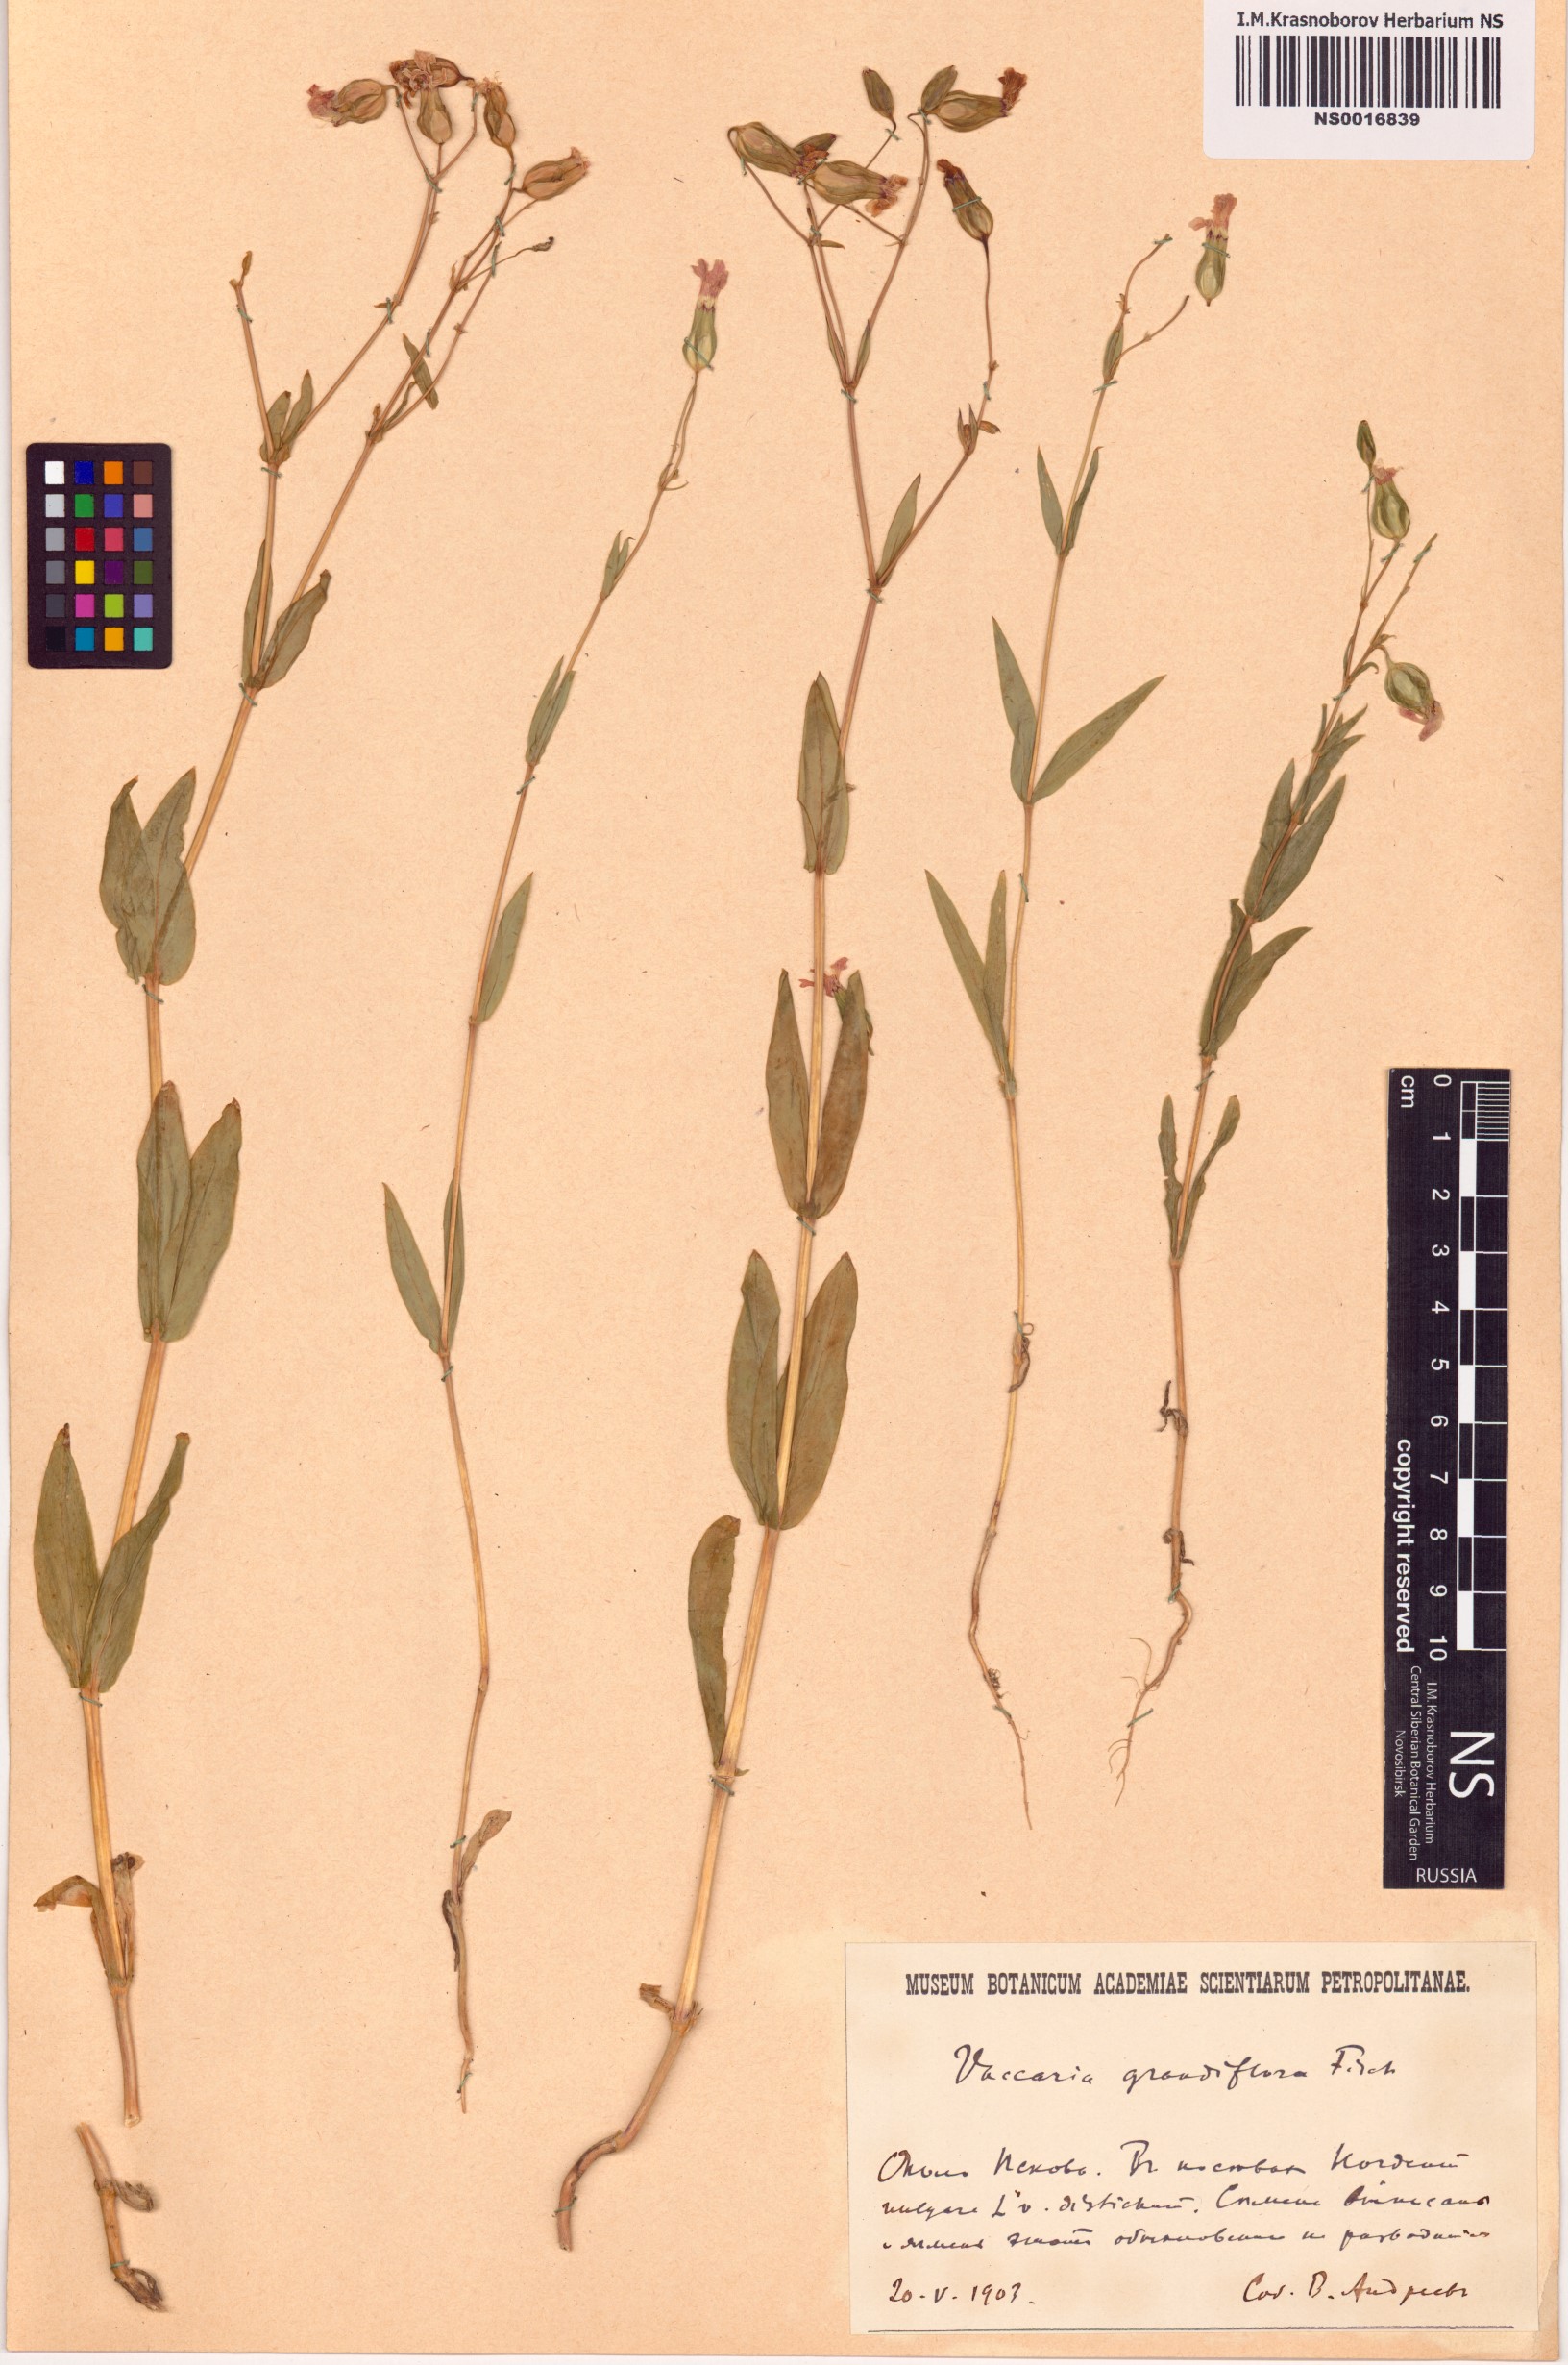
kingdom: Plantae
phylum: Tracheophyta
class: Magnoliopsida
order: Caryophyllales
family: Caryophyllaceae
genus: Gypsophila
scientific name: Gypsophila vaccaria
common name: Cow soapwort
